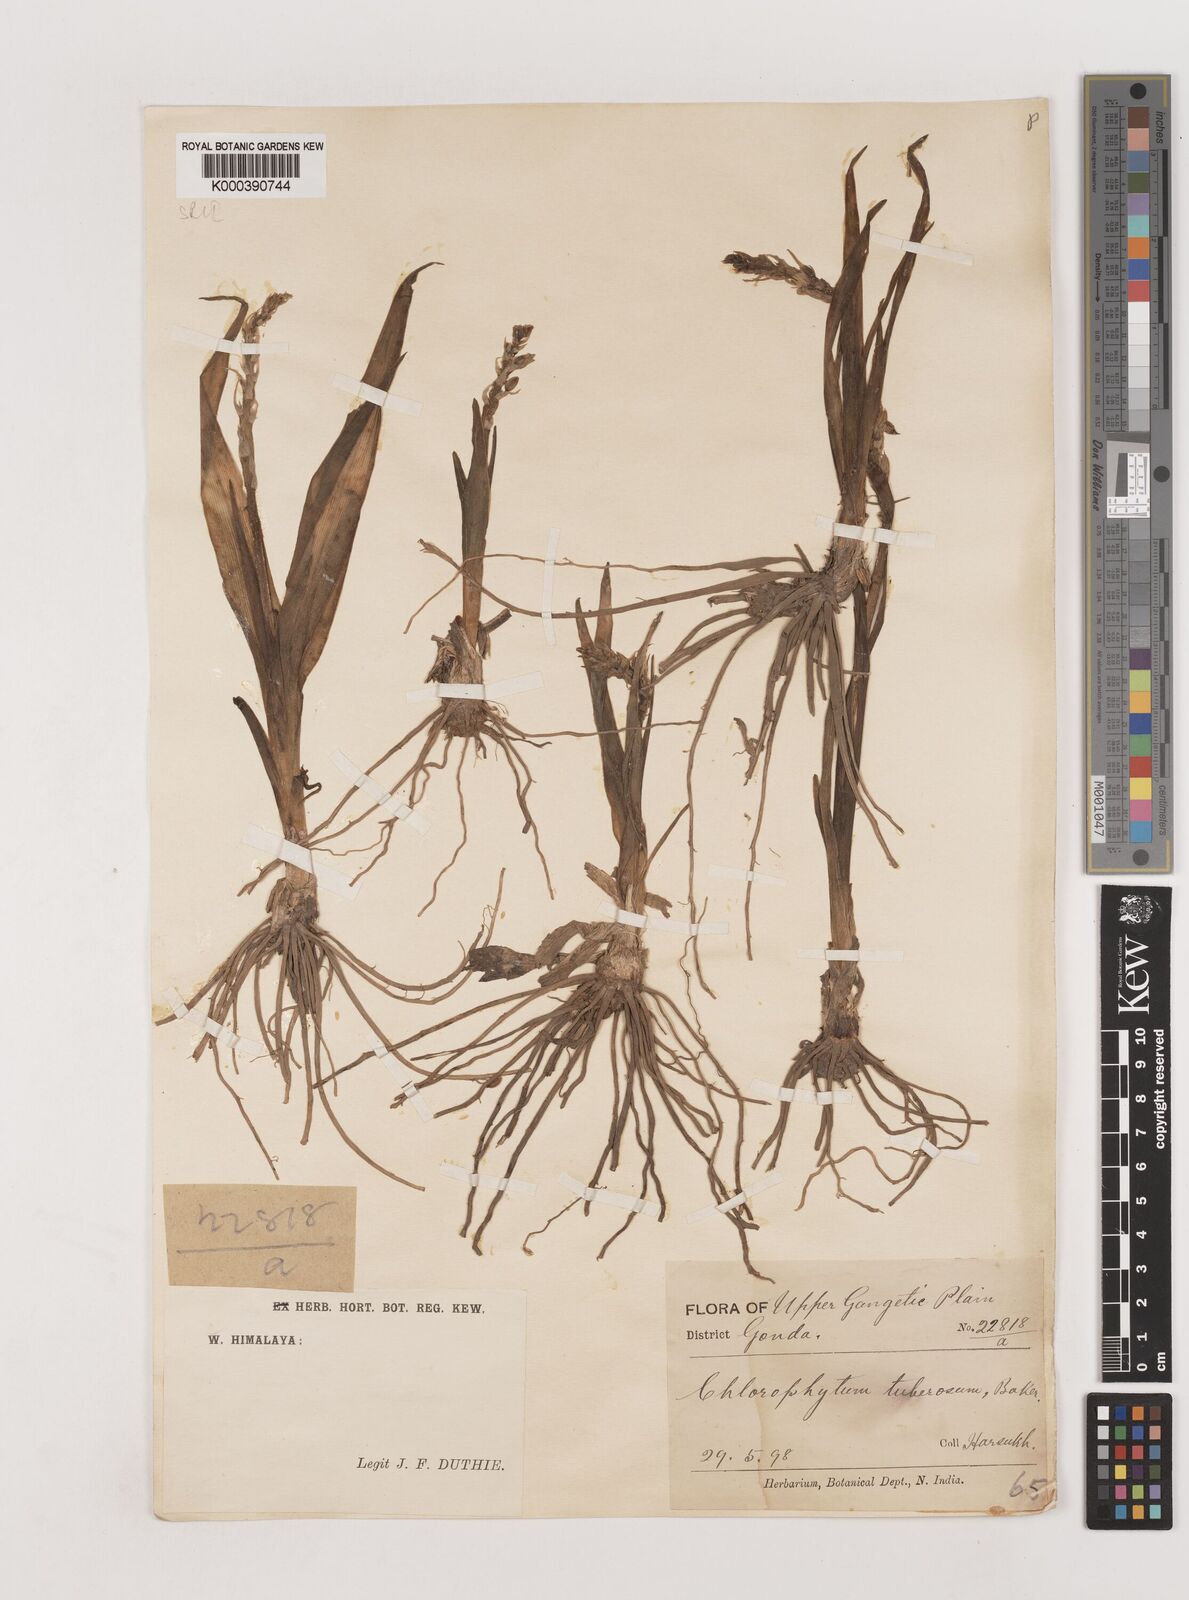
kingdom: Plantae
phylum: Tracheophyta
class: Liliopsida
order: Asparagales
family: Asparagaceae
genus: Chlorophytum
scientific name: Chlorophytum tuberosum
